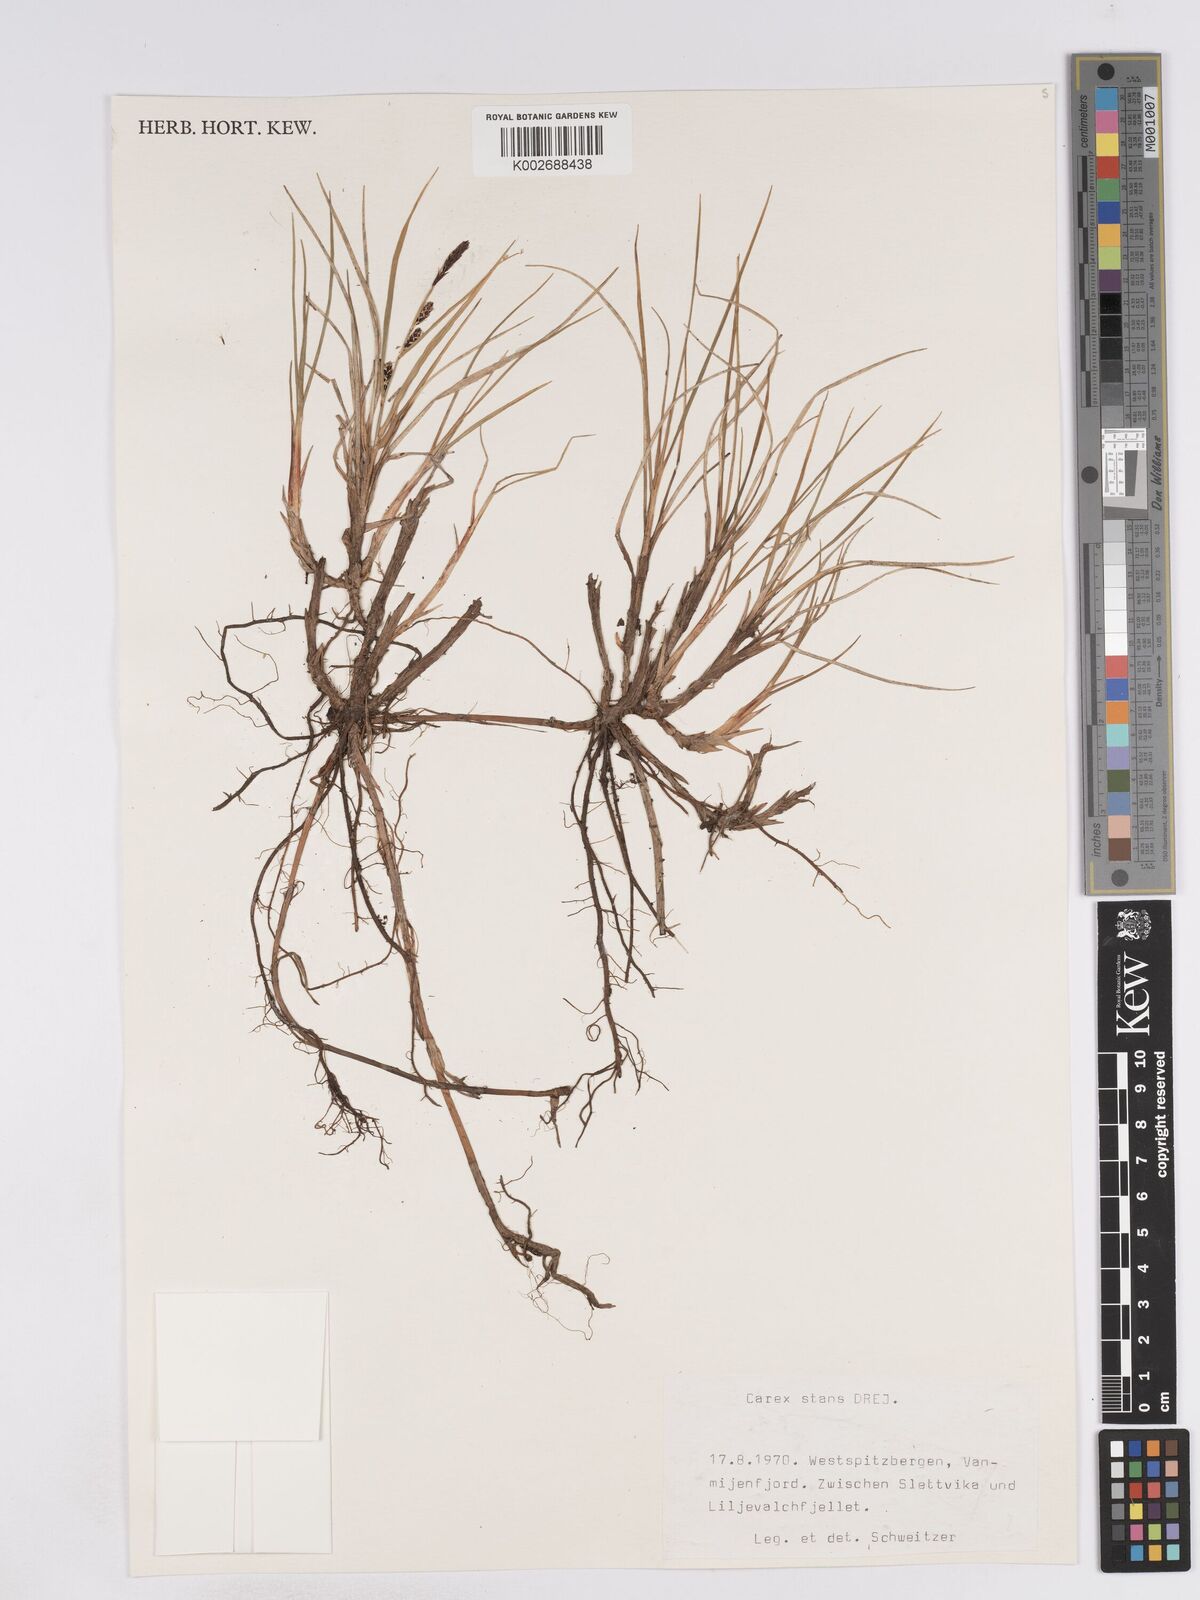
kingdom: Plantae
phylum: Tracheophyta
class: Liliopsida
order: Poales
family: Cyperaceae
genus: Carex
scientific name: Carex subspathacea
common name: Hoppner's sedge
